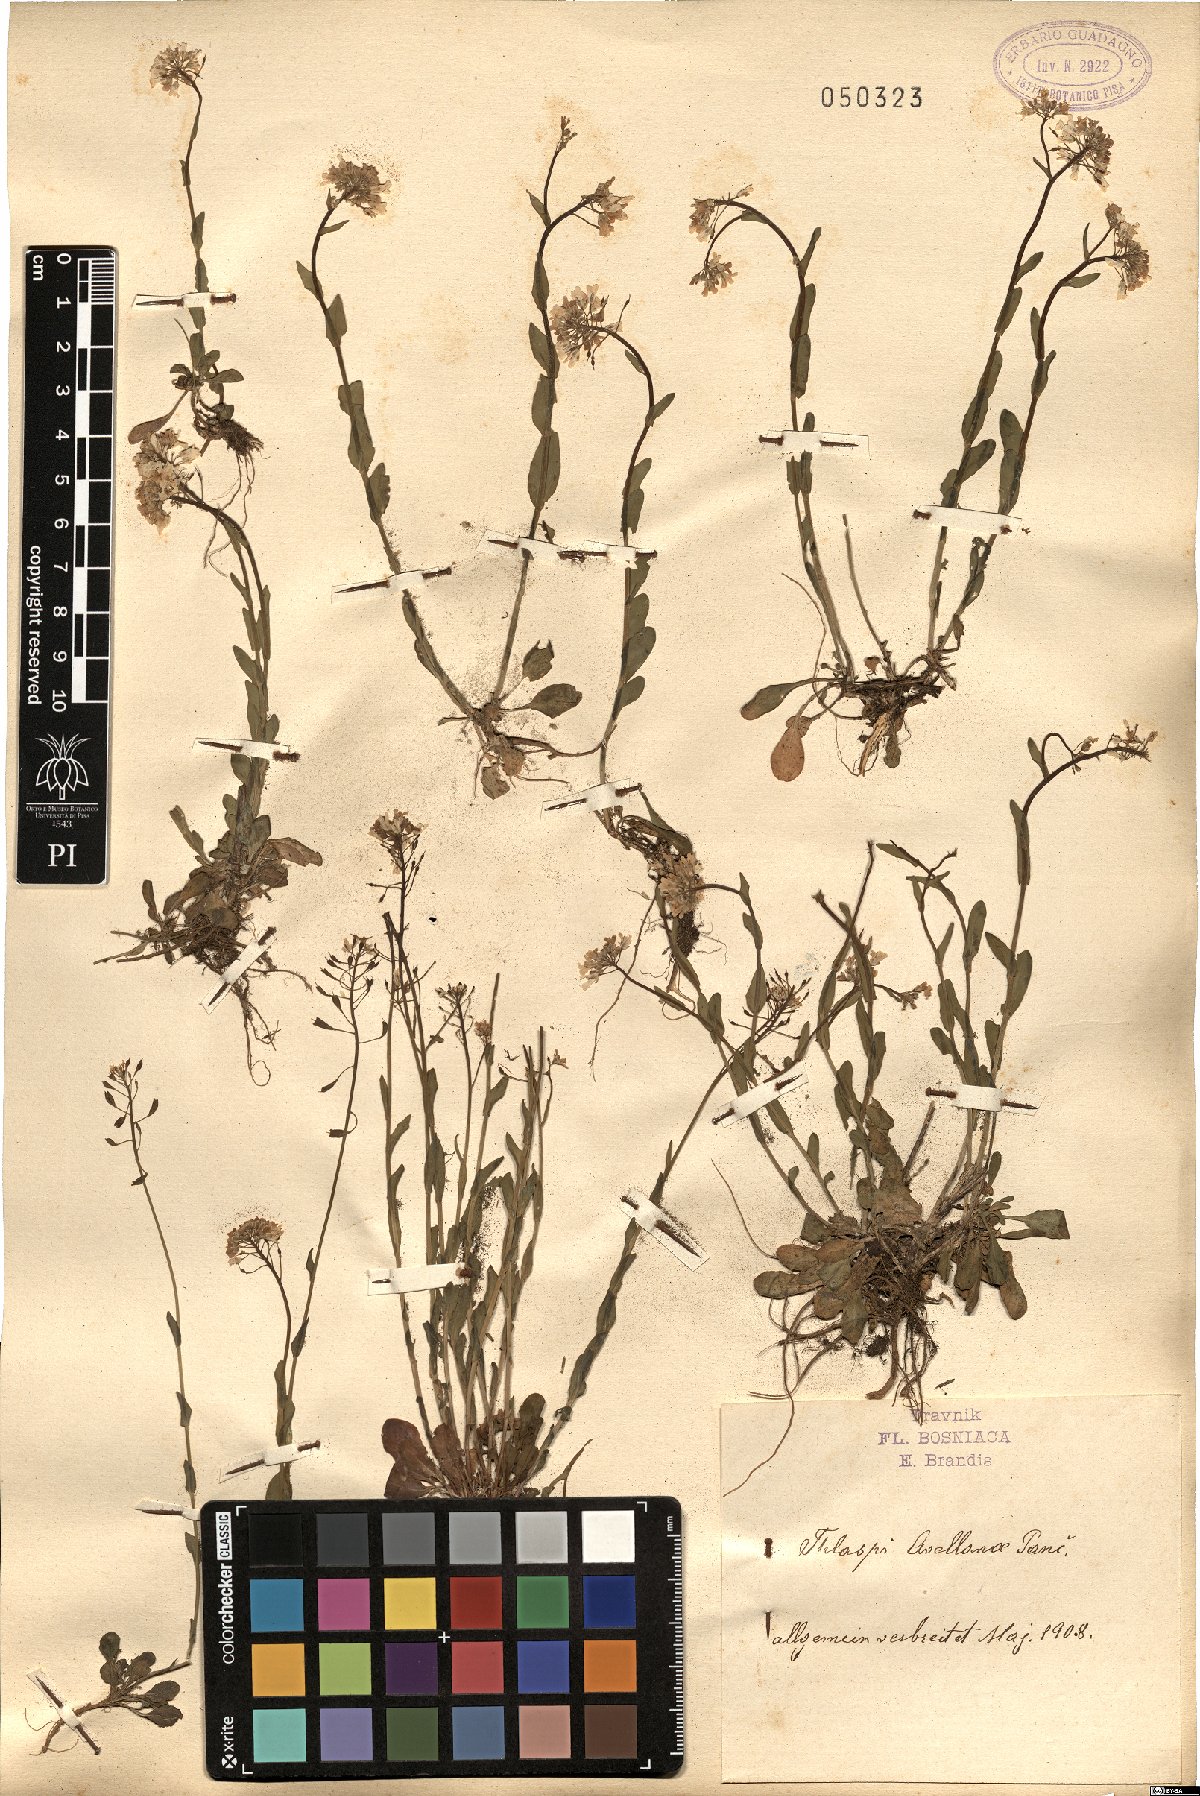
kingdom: Plantae
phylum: Tracheophyta
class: Magnoliopsida
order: Brassicales
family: Brassicaceae
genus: Noccaea
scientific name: Noccaea kovatsii
